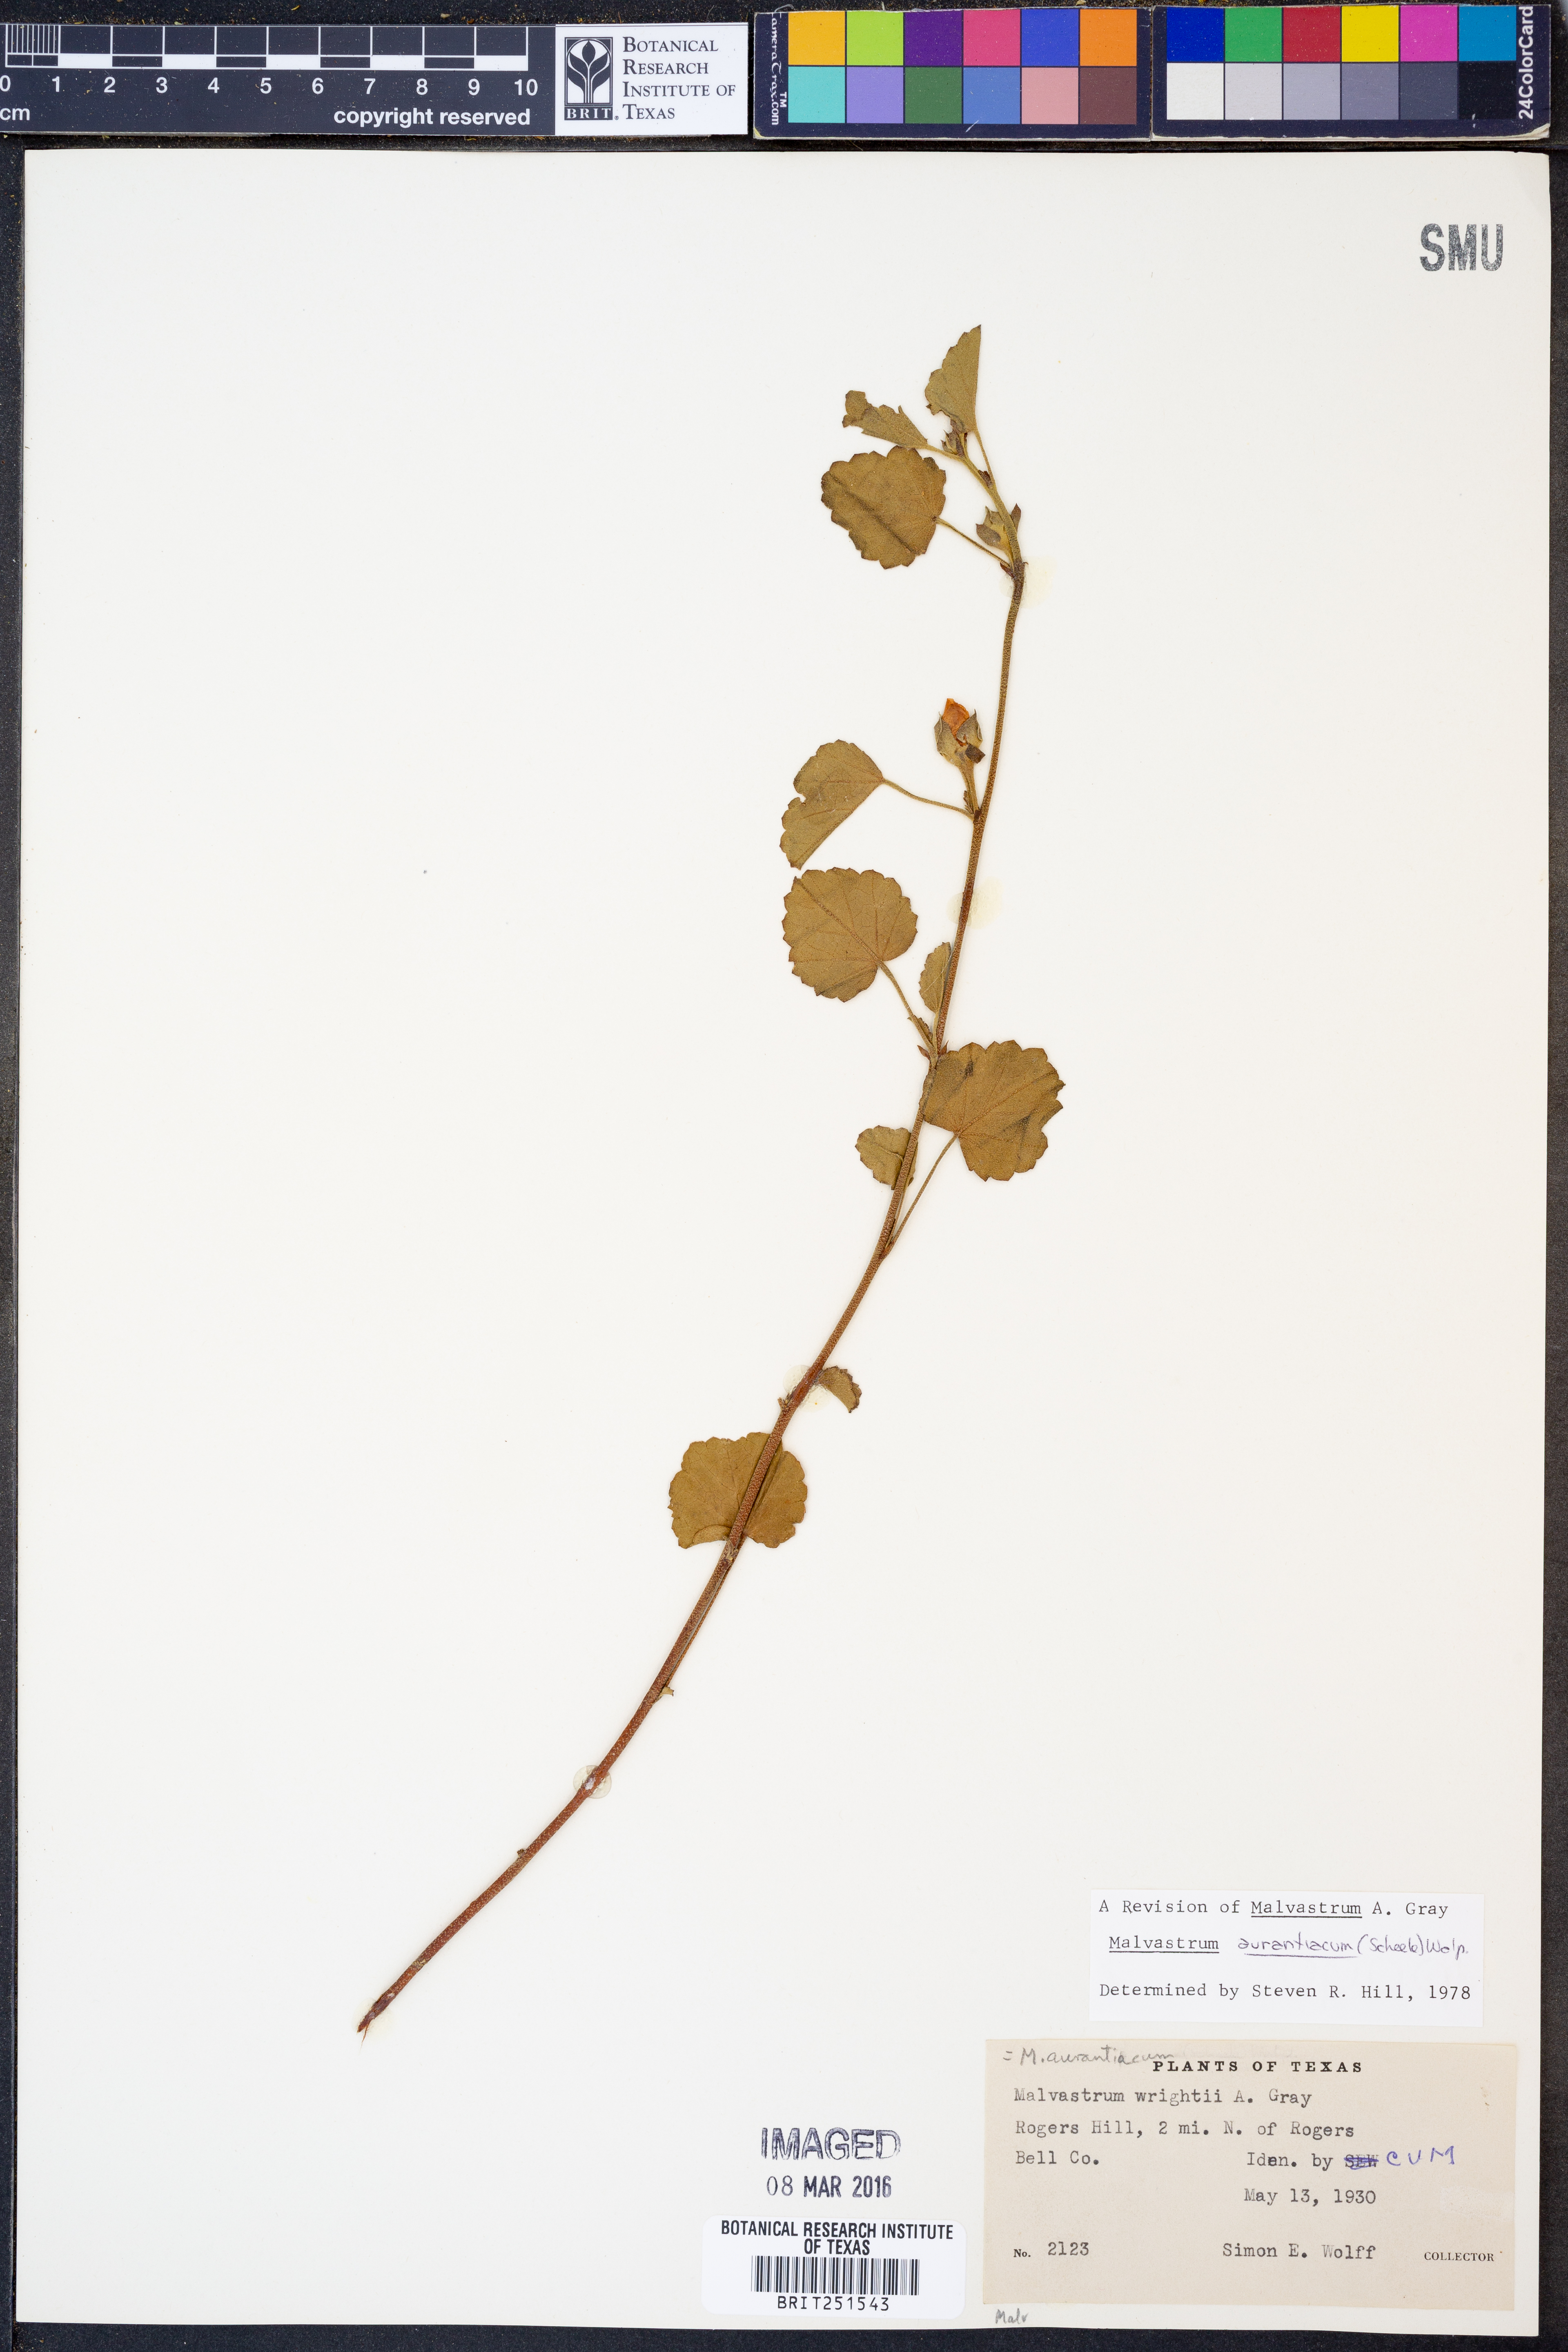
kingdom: Plantae
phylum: Tracheophyta
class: Magnoliopsida
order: Malvales
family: Malvaceae
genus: Malvastrum
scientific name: Malvastrum aurantiacum
